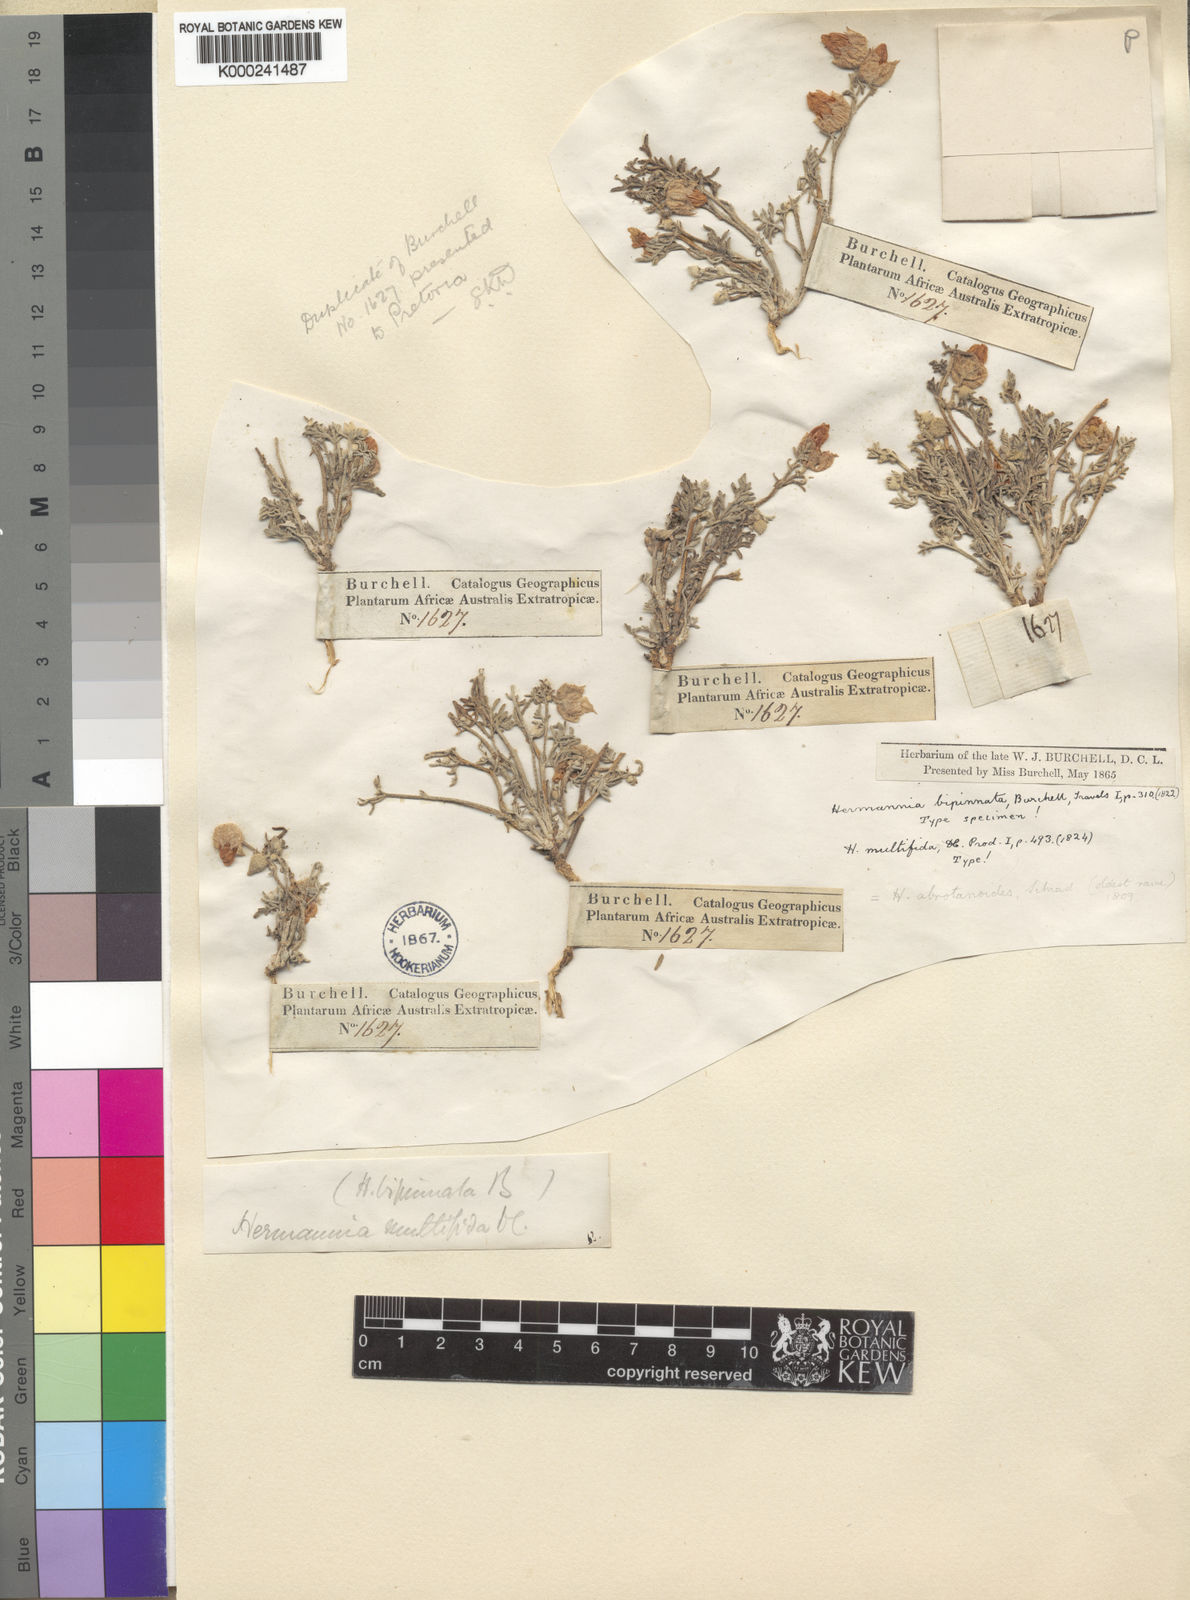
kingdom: Plantae
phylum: Tracheophyta
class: Magnoliopsida
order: Malvales
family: Malvaceae
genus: Hermannia
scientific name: Hermannia abrotanoides
